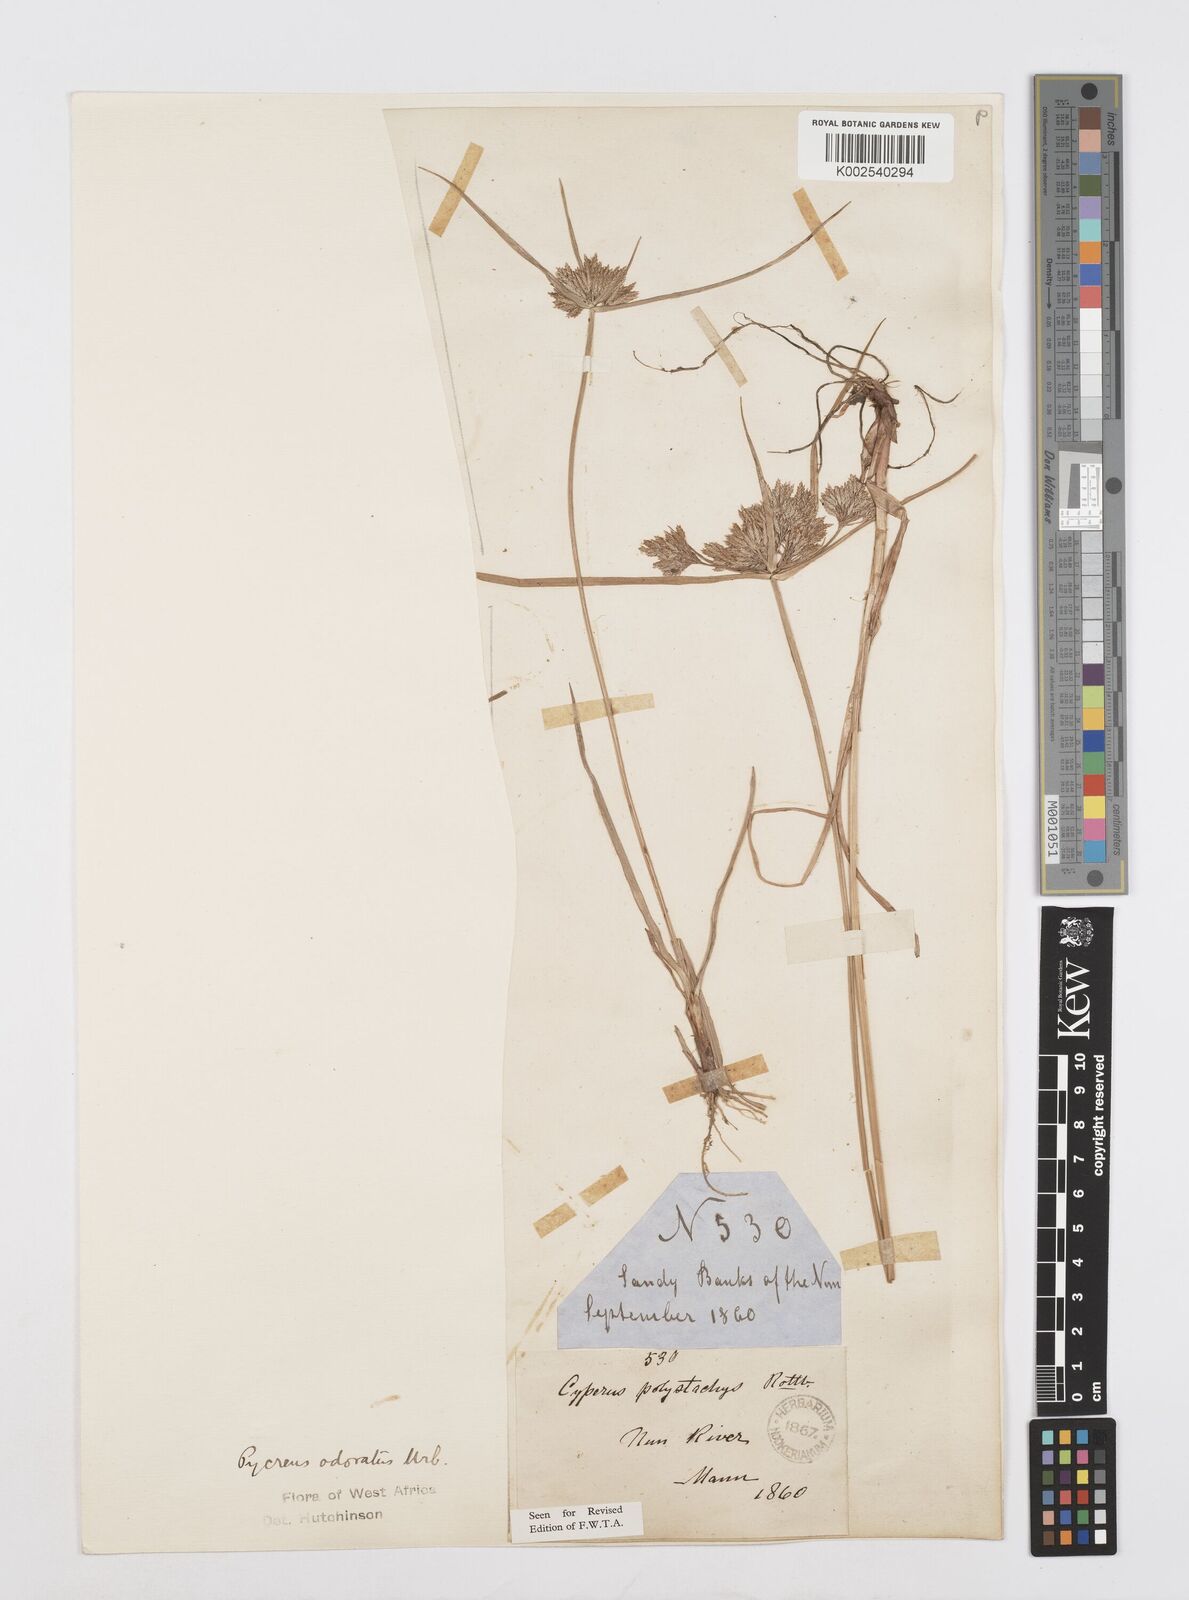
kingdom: Plantae
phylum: Tracheophyta
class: Liliopsida
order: Poales
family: Cyperaceae
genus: Cyperus
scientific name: Cyperus polystachyos
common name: Bunchy flat sedge
